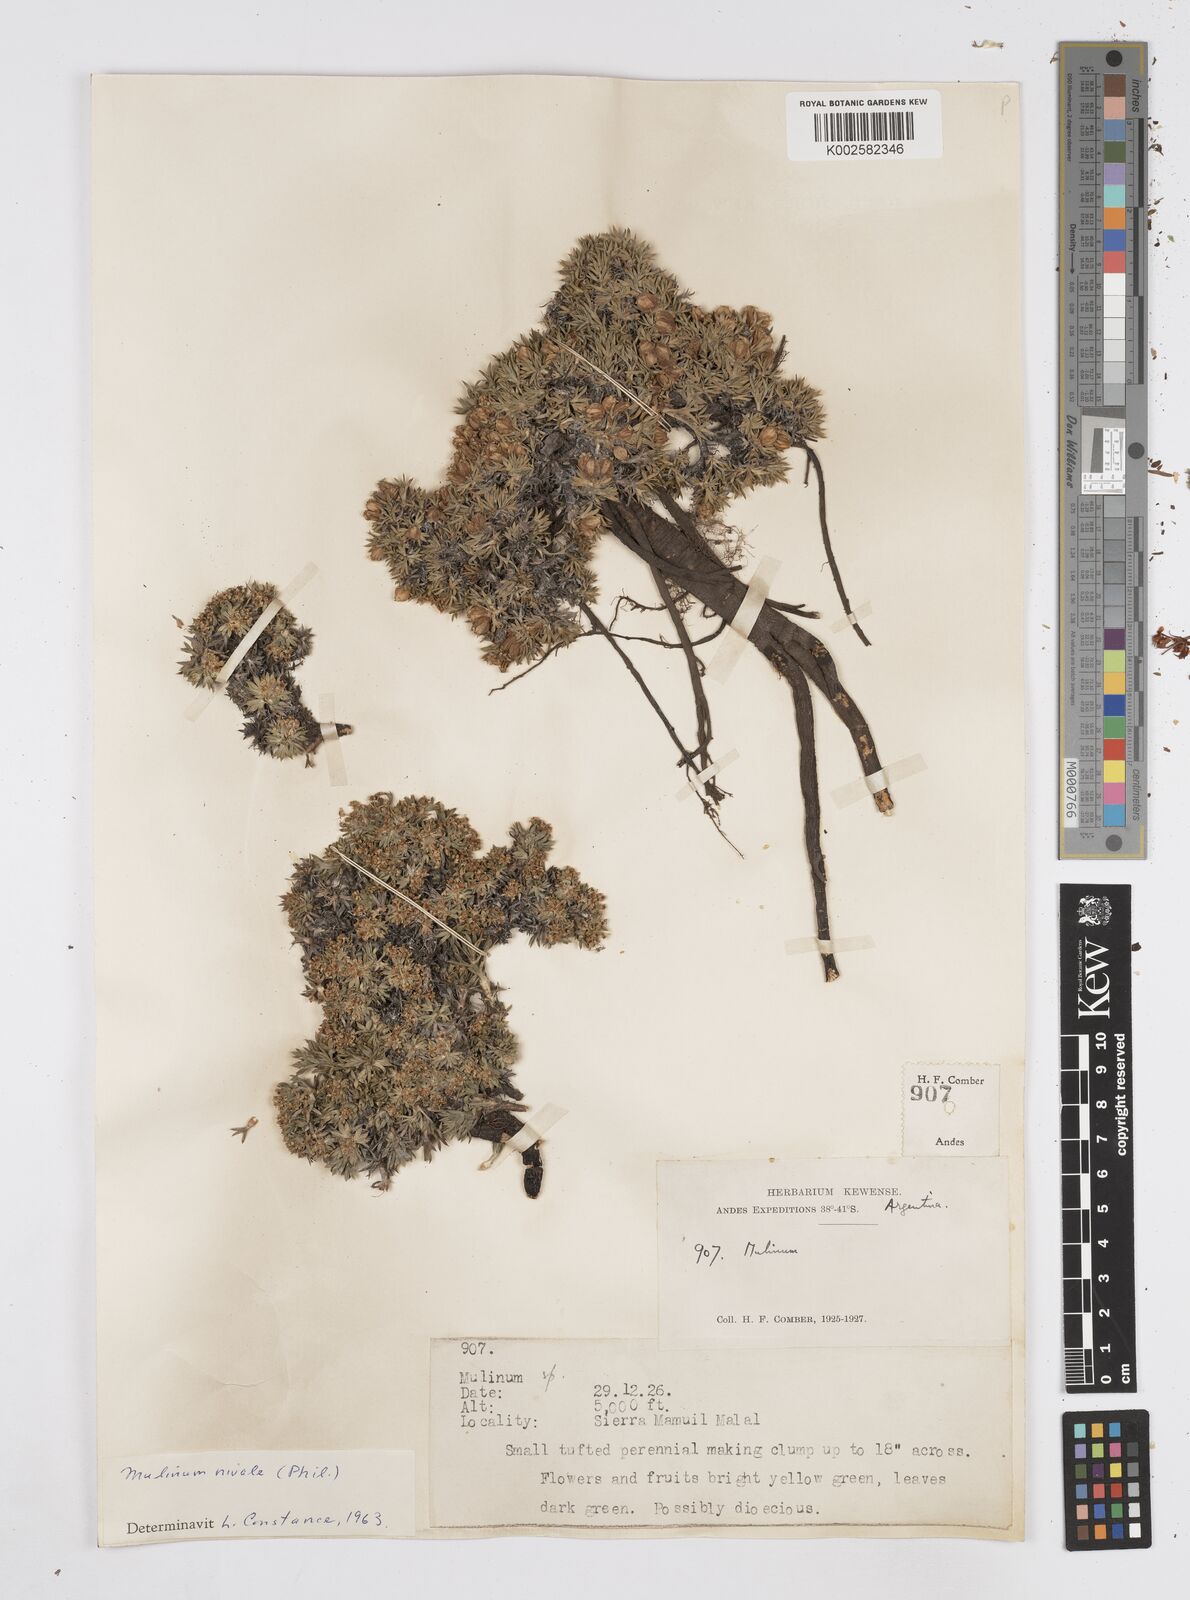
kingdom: Plantae
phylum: Tracheophyta
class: Magnoliopsida
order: Apiales
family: Apiaceae
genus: Azorella
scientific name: Azorella
